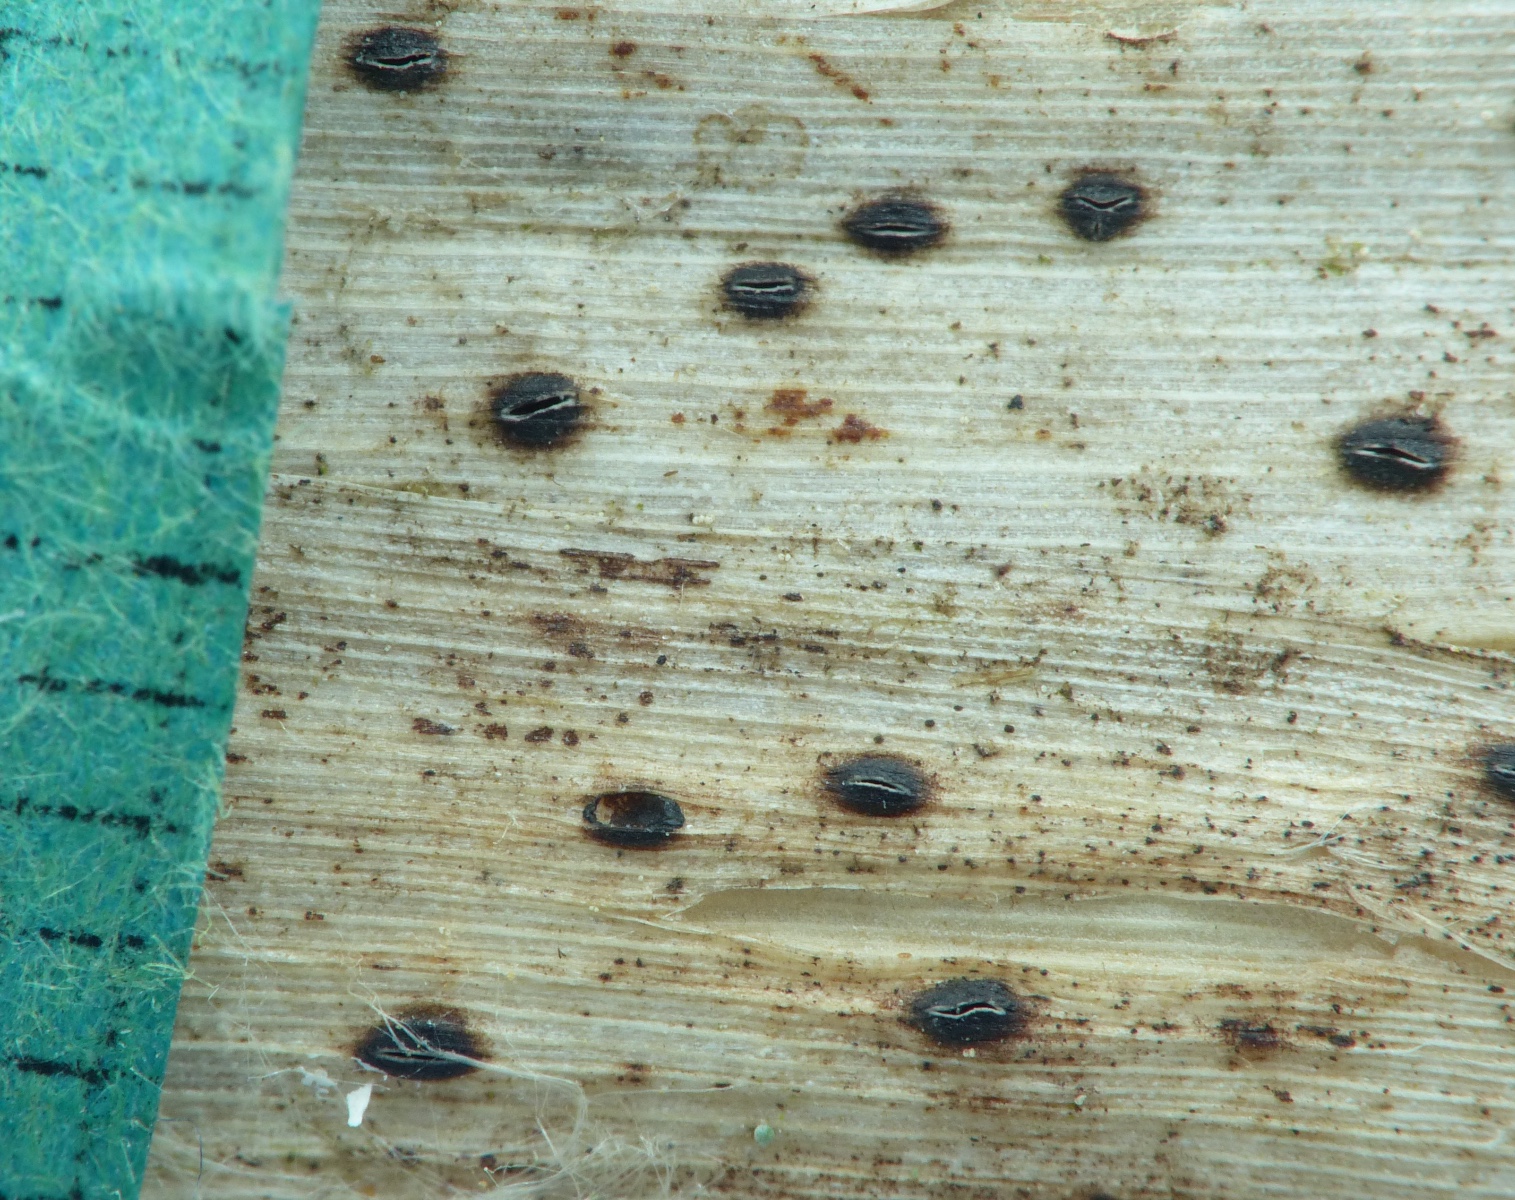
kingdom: Fungi
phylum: Ascomycota
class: Leotiomycetes
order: Rhytismatales
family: Rhytismataceae
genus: Lophodermium
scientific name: Lophodermium typhinum
